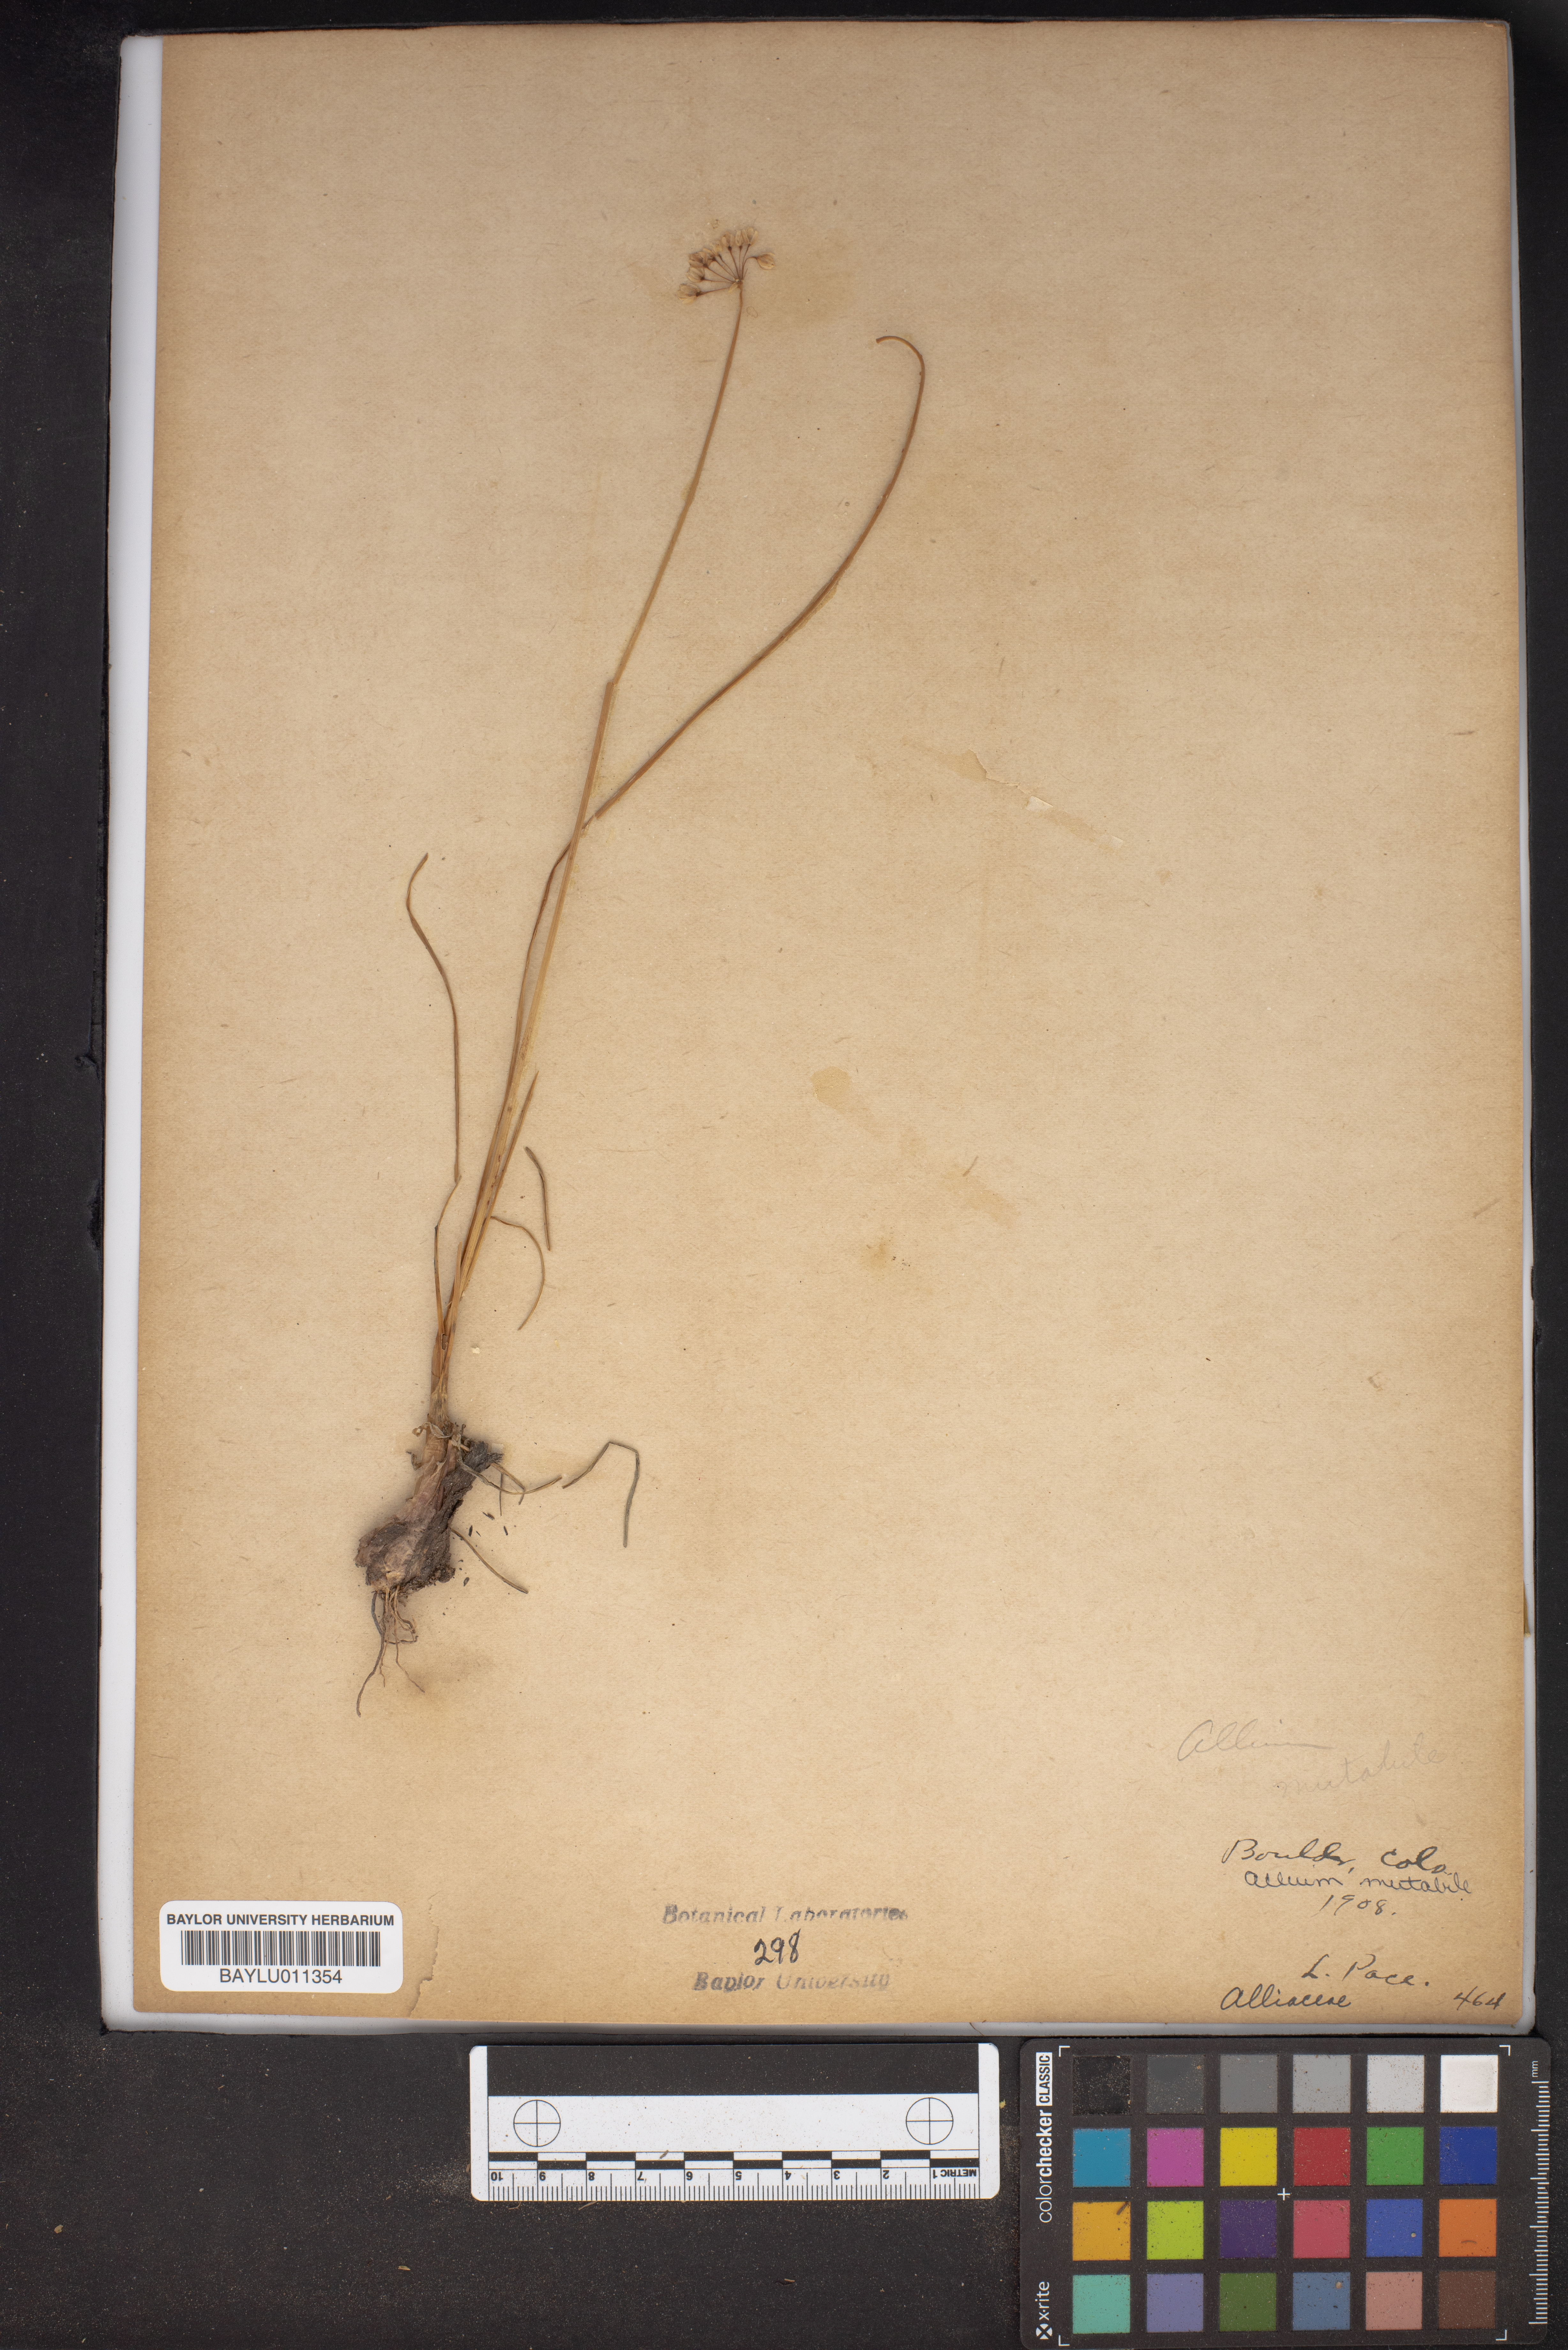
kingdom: Plantae
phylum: Tracheophyta
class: Liliopsida
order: Asparagales
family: Amaryllidaceae
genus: Allium
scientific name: Allium drummondii
